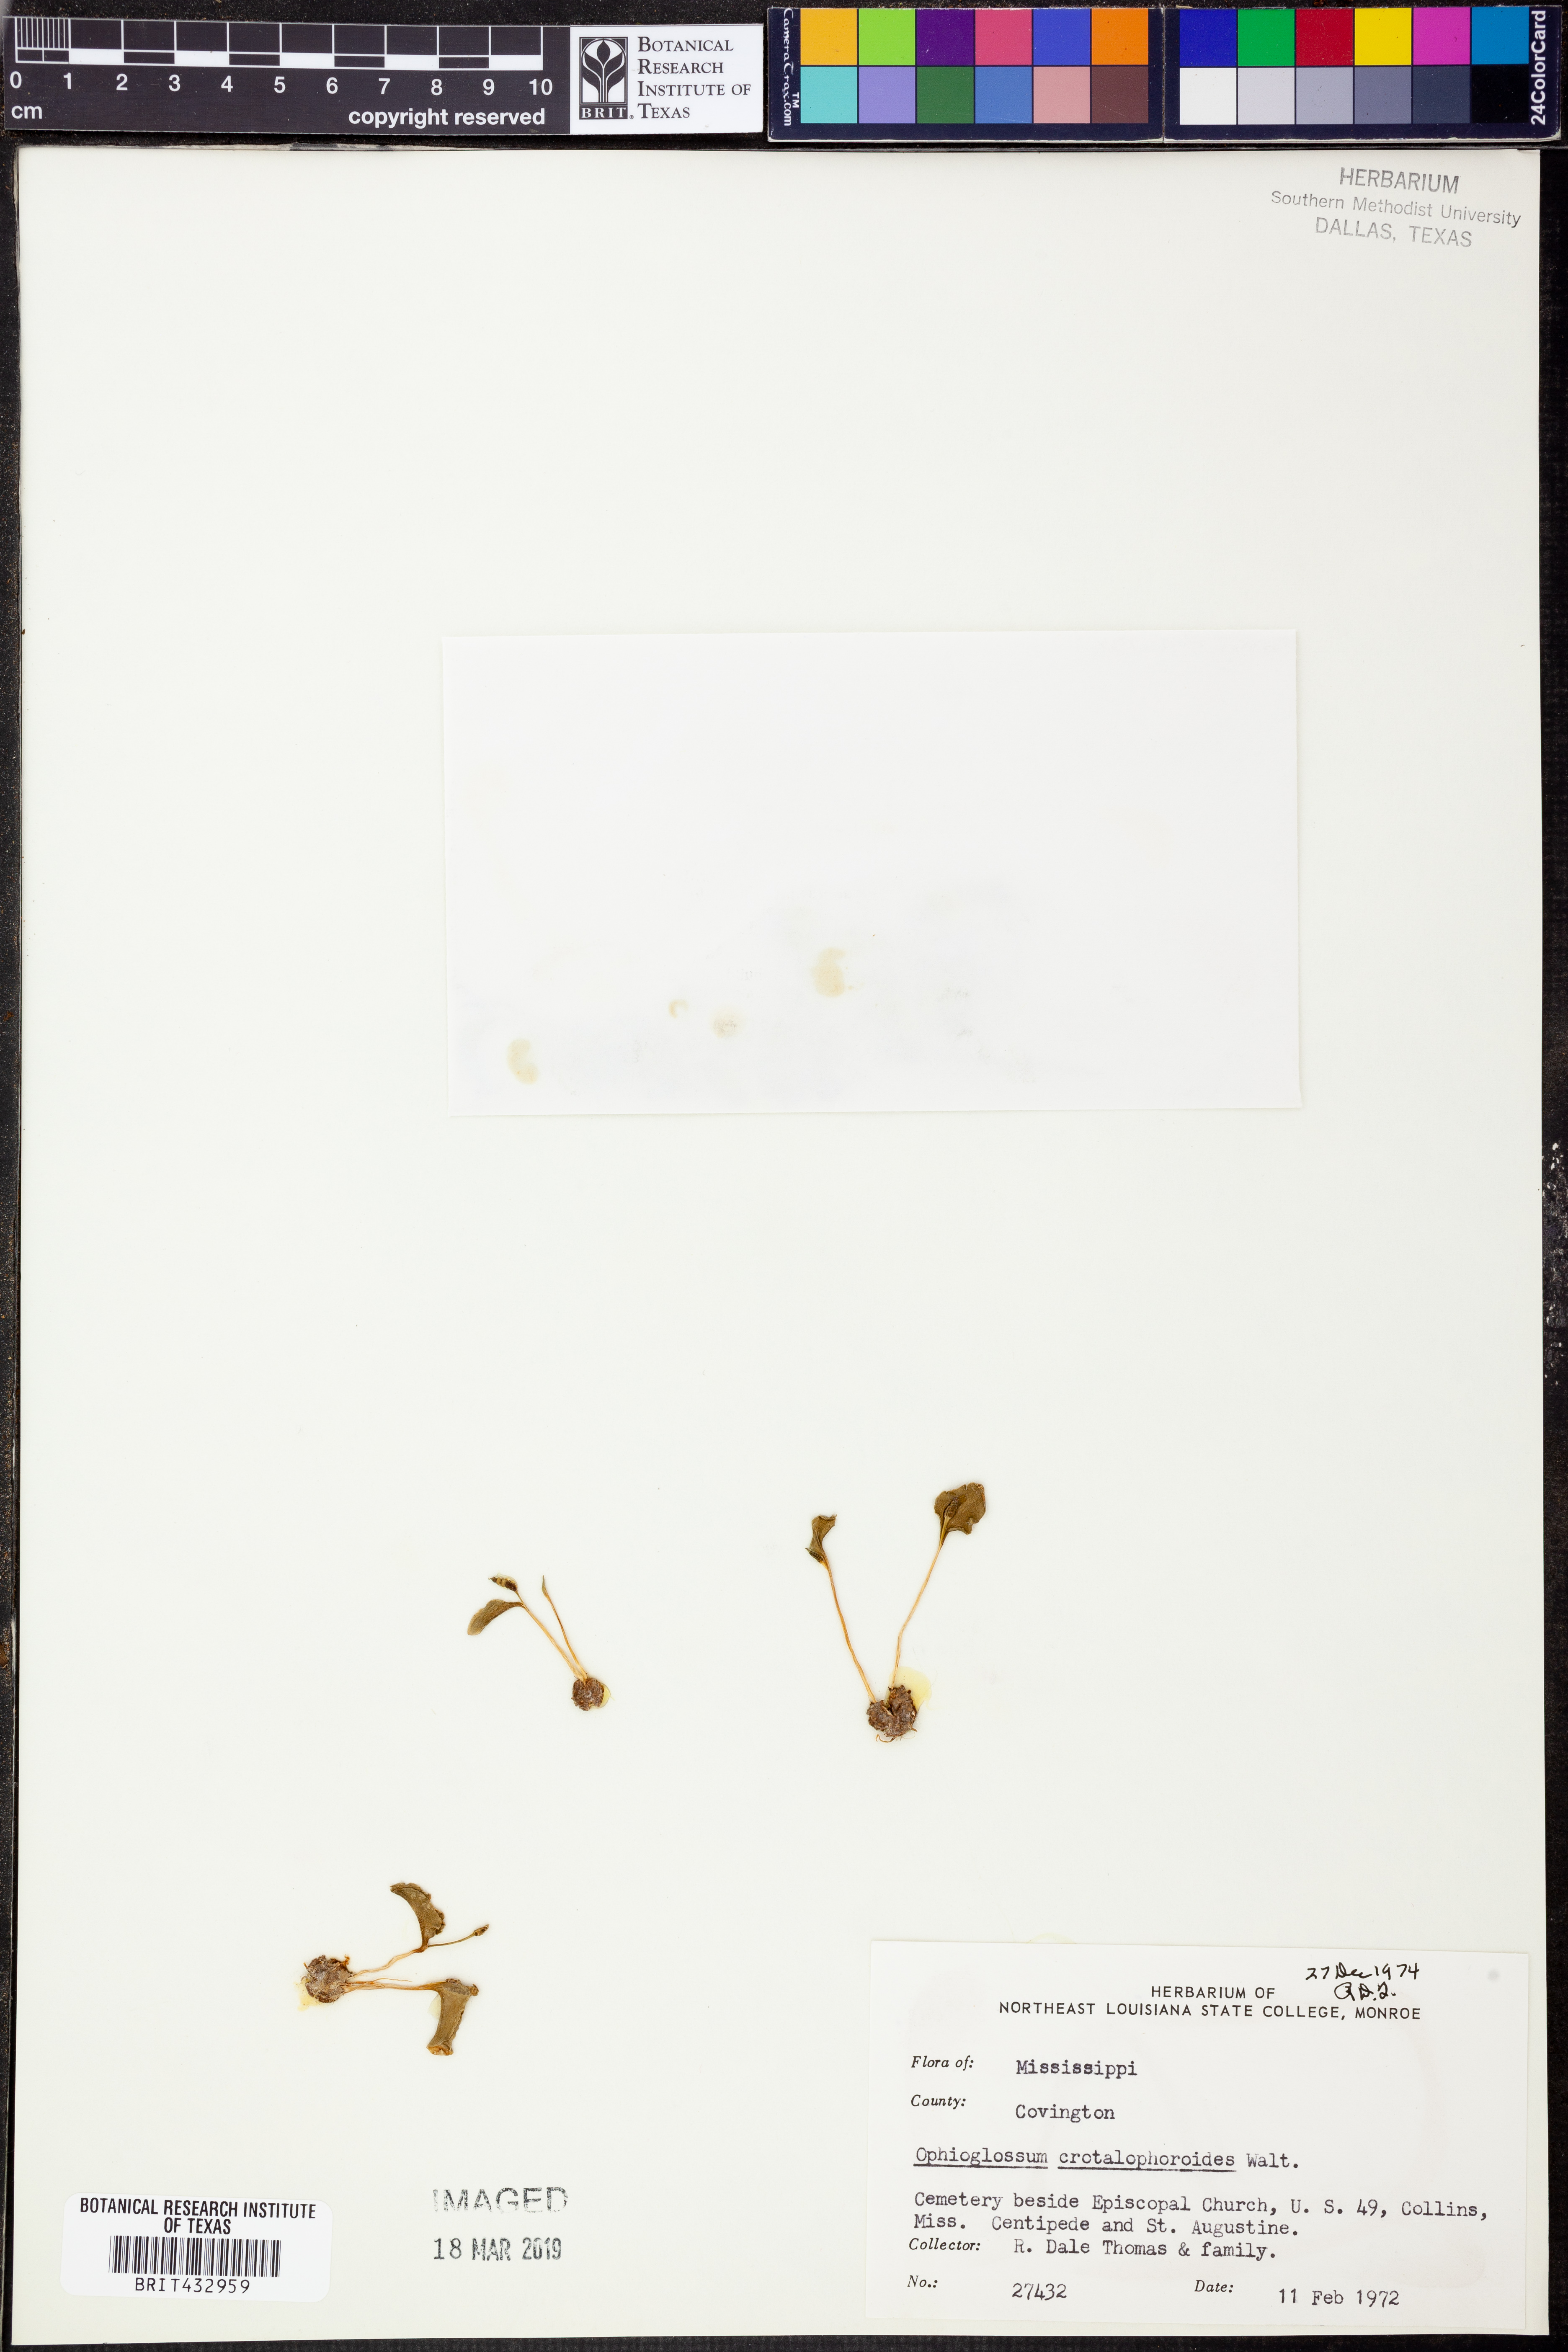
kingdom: Plantae
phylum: Tracheophyta
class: Polypodiopsida
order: Ophioglossales
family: Ophioglossaceae
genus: Ophioglossum
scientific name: Ophioglossum crotalophoroides
